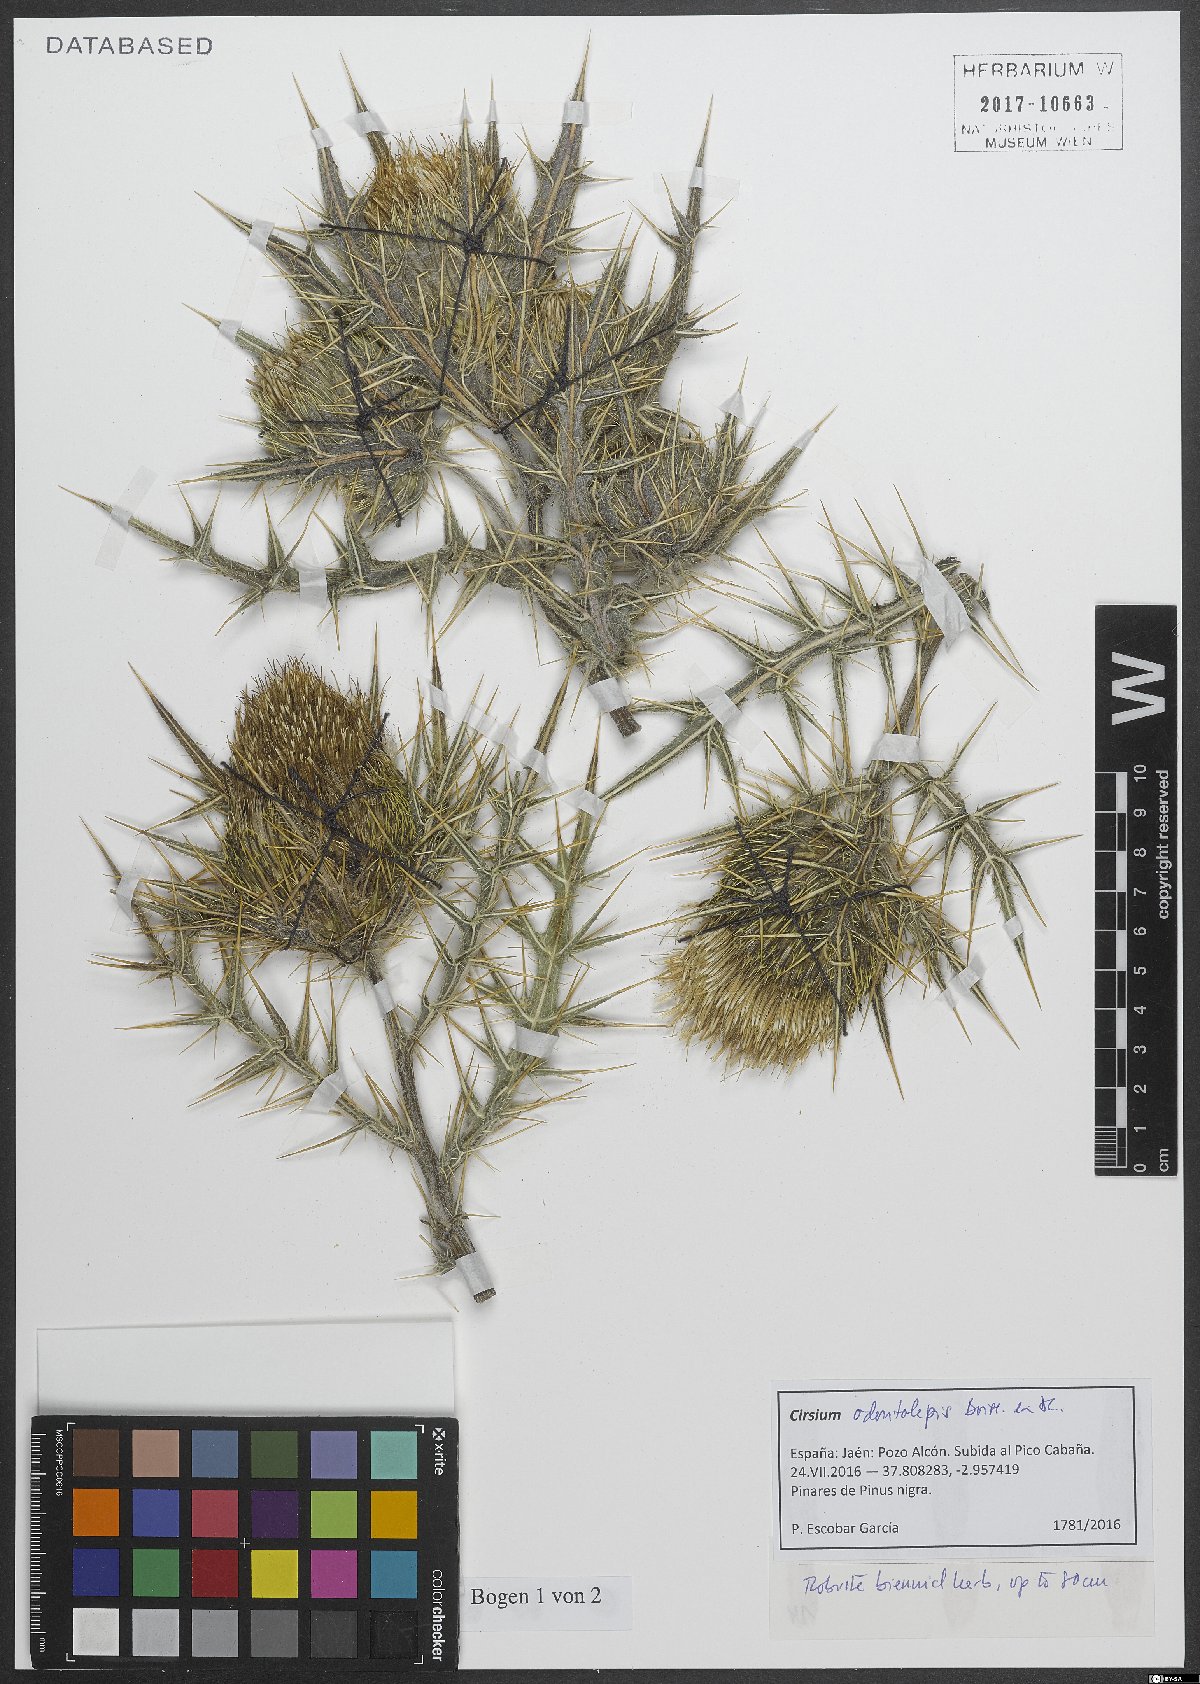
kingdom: Plantae
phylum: Tracheophyta
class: Magnoliopsida
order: Asterales
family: Asteraceae
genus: Lophiolepis
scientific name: Lophiolepis odontolepis
